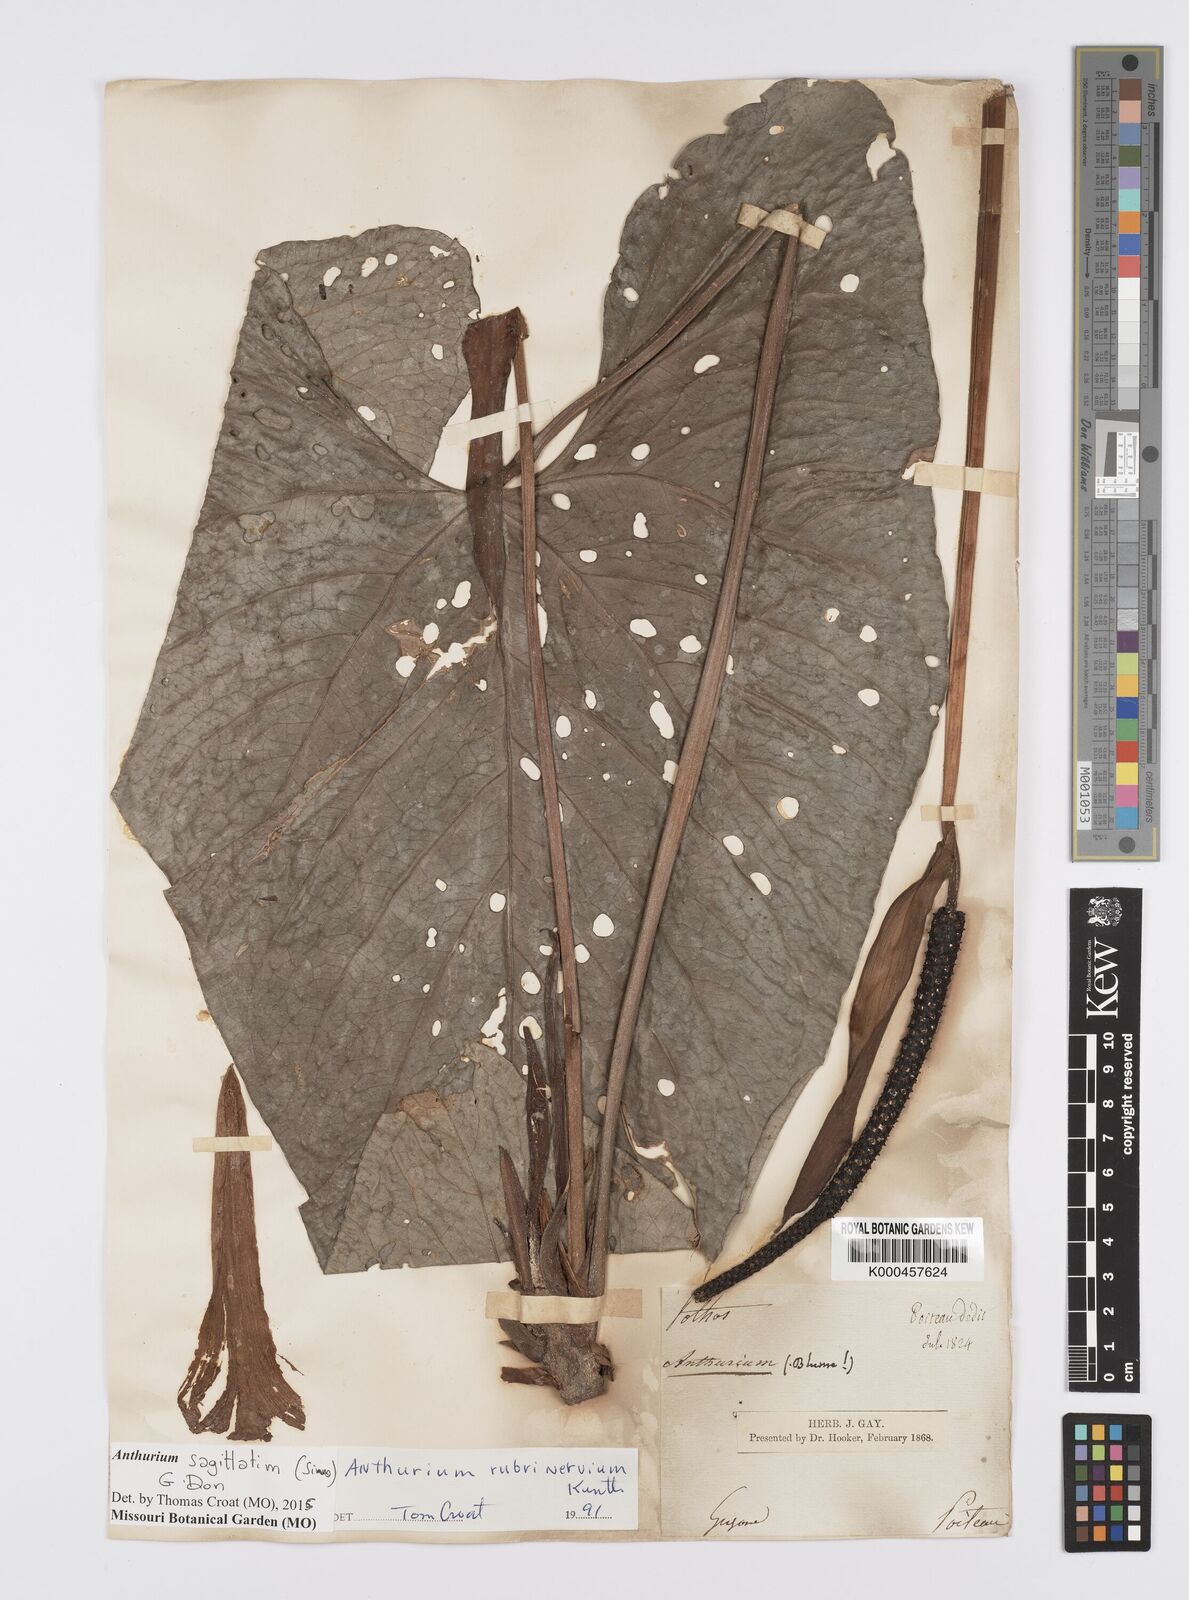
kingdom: Plantae
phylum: Tracheophyta
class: Liliopsida
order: Alismatales
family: Araceae
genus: Anthurium
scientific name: Anthurium sagittatum
